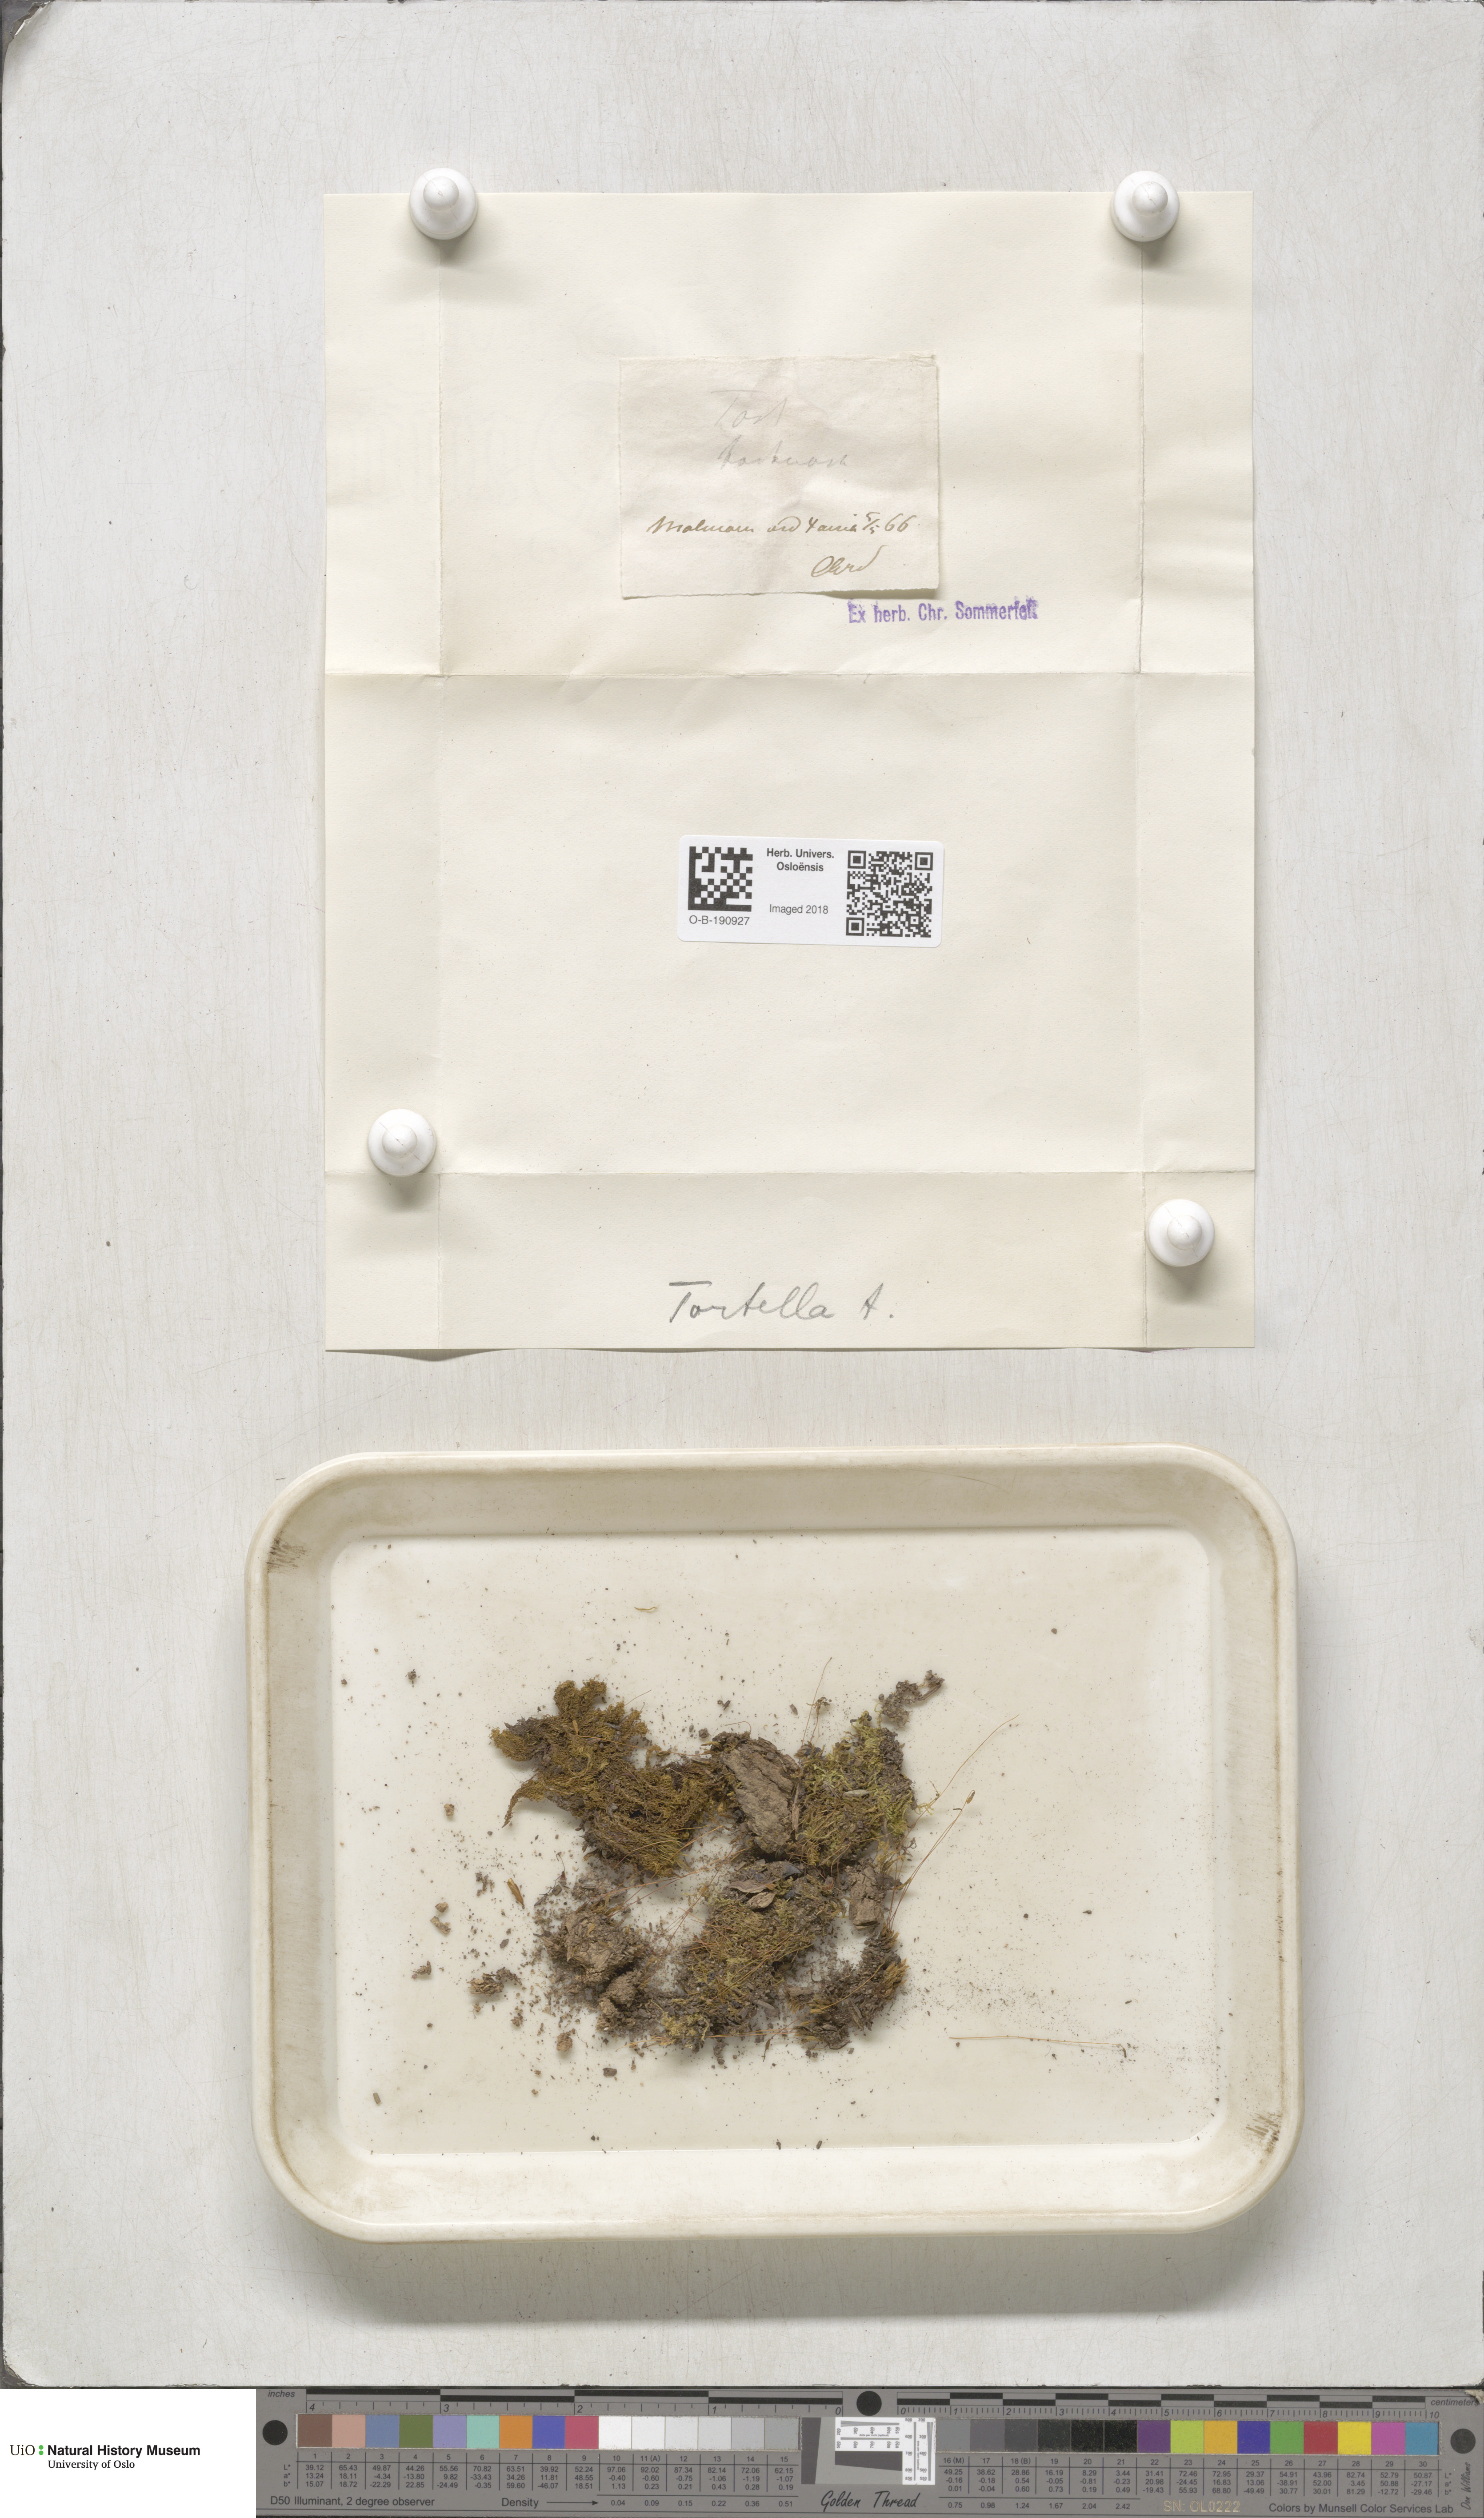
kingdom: Plantae
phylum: Bryophyta
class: Bryopsida
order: Pottiales
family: Pottiaceae
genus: Tortella
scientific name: Tortella tortuosa
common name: Frizzled crisp moss
